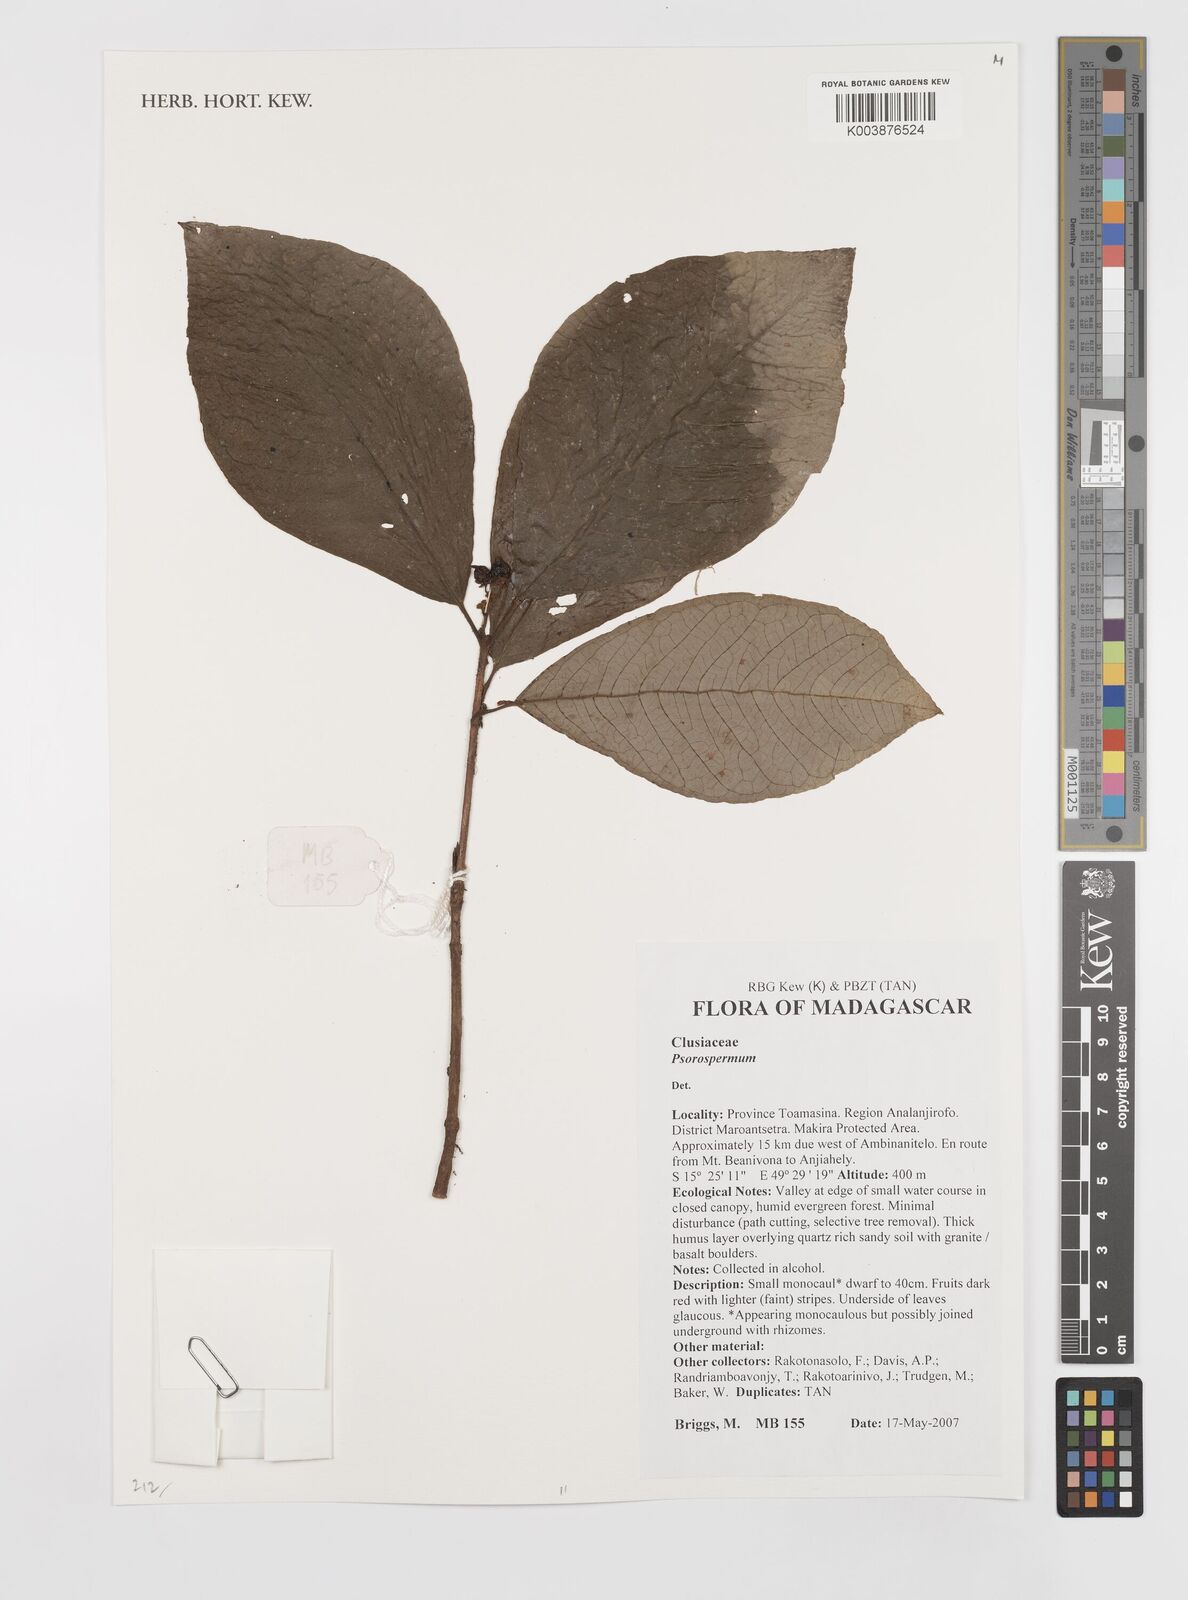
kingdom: Plantae
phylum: Tracheophyta
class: Magnoliopsida
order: Malpighiales
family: Hypericaceae
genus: Psorospermum
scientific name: Psorospermum
